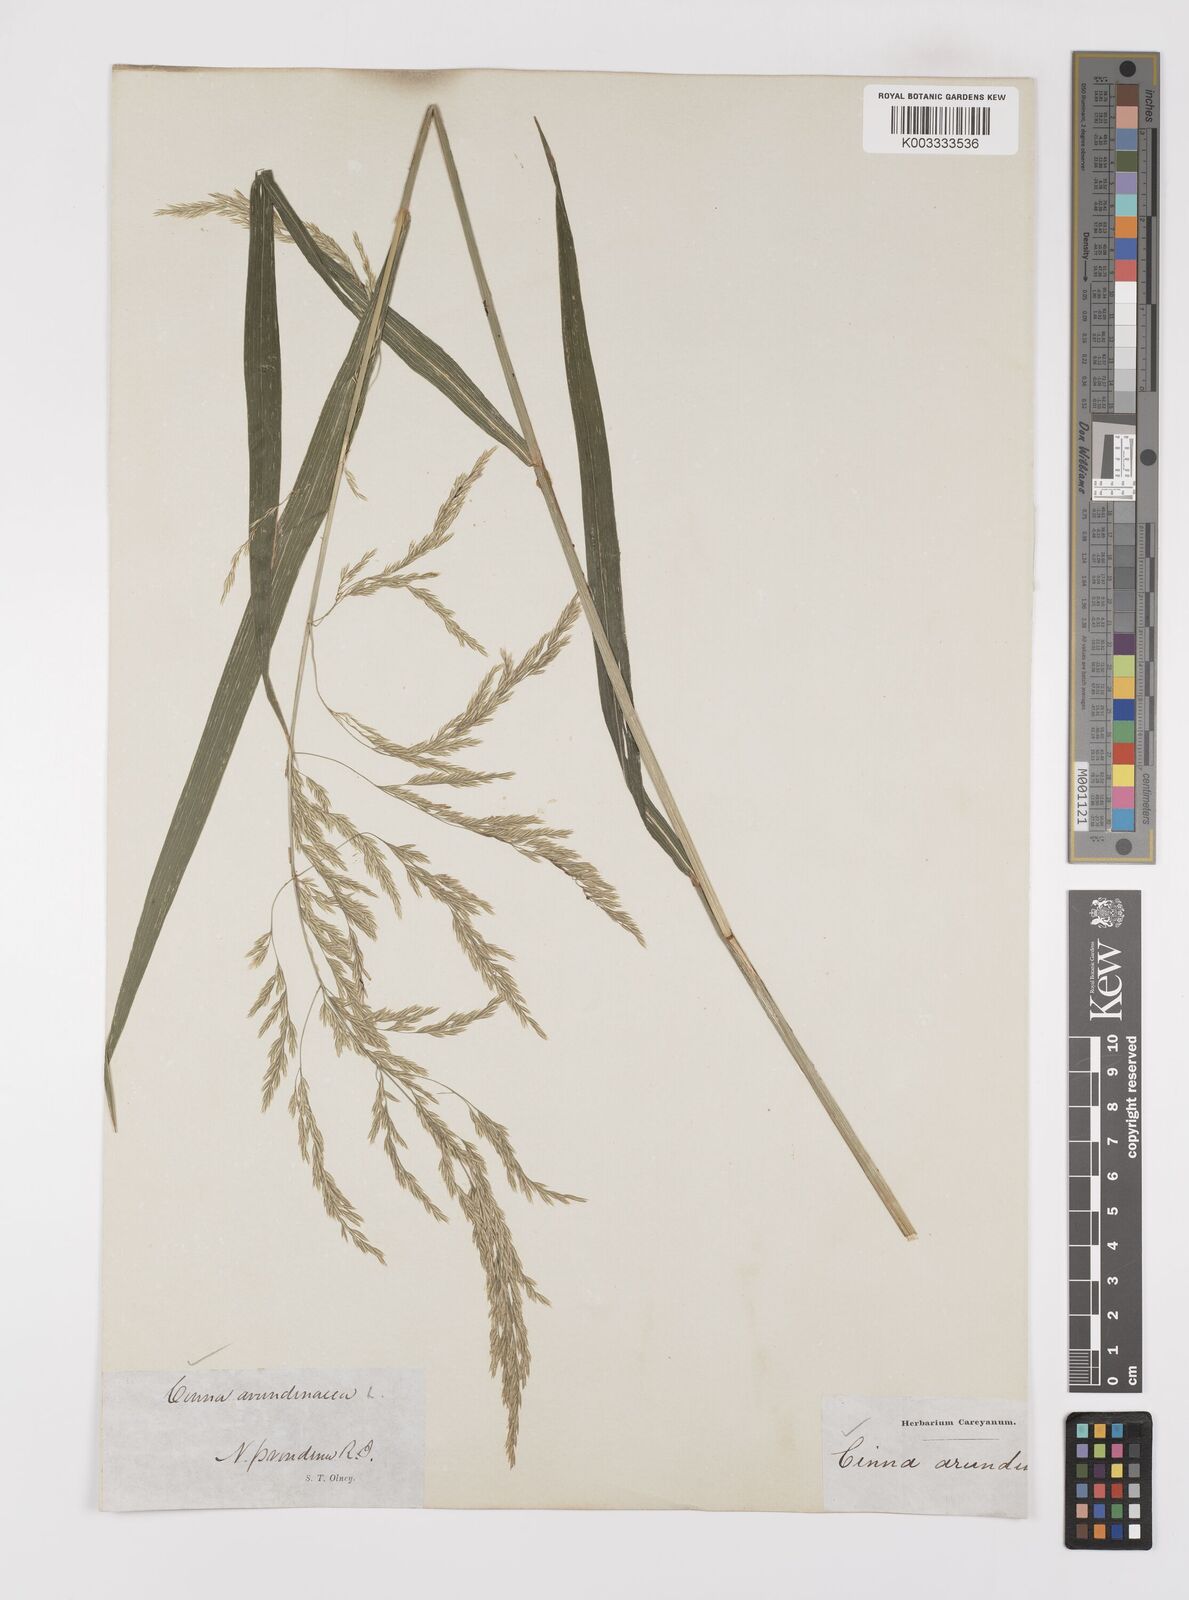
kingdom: Plantae
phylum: Tracheophyta
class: Liliopsida
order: Poales
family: Poaceae
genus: Cinna
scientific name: Cinna
